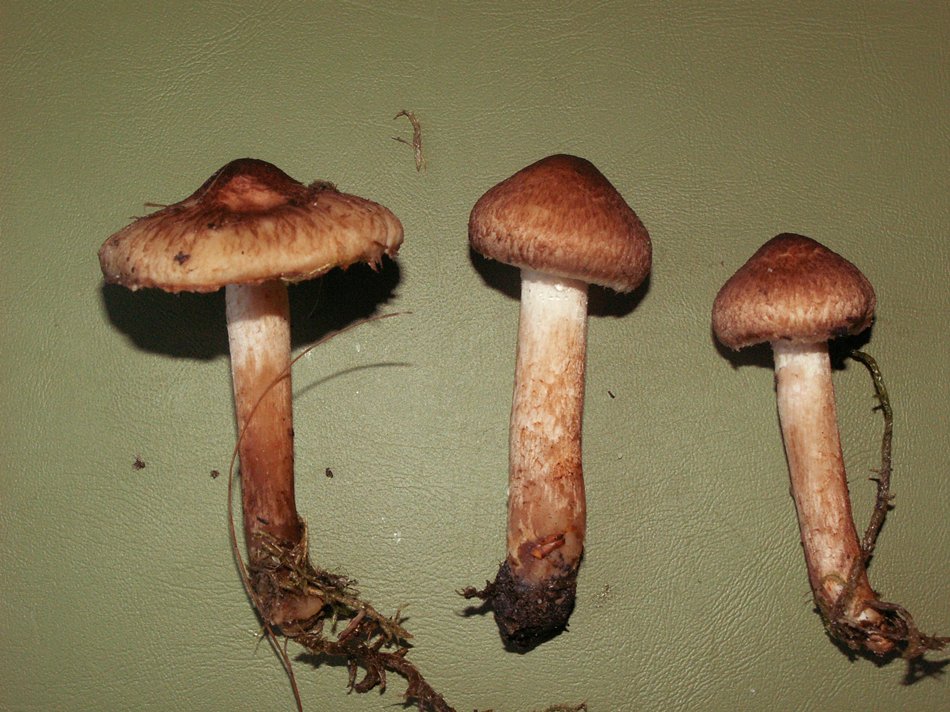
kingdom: Fungi
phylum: Basidiomycota
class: Agaricomycetes
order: Agaricales
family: Tricholomataceae
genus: Tricholoma
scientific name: Tricholoma vaccinum
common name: ko-ridderhat
